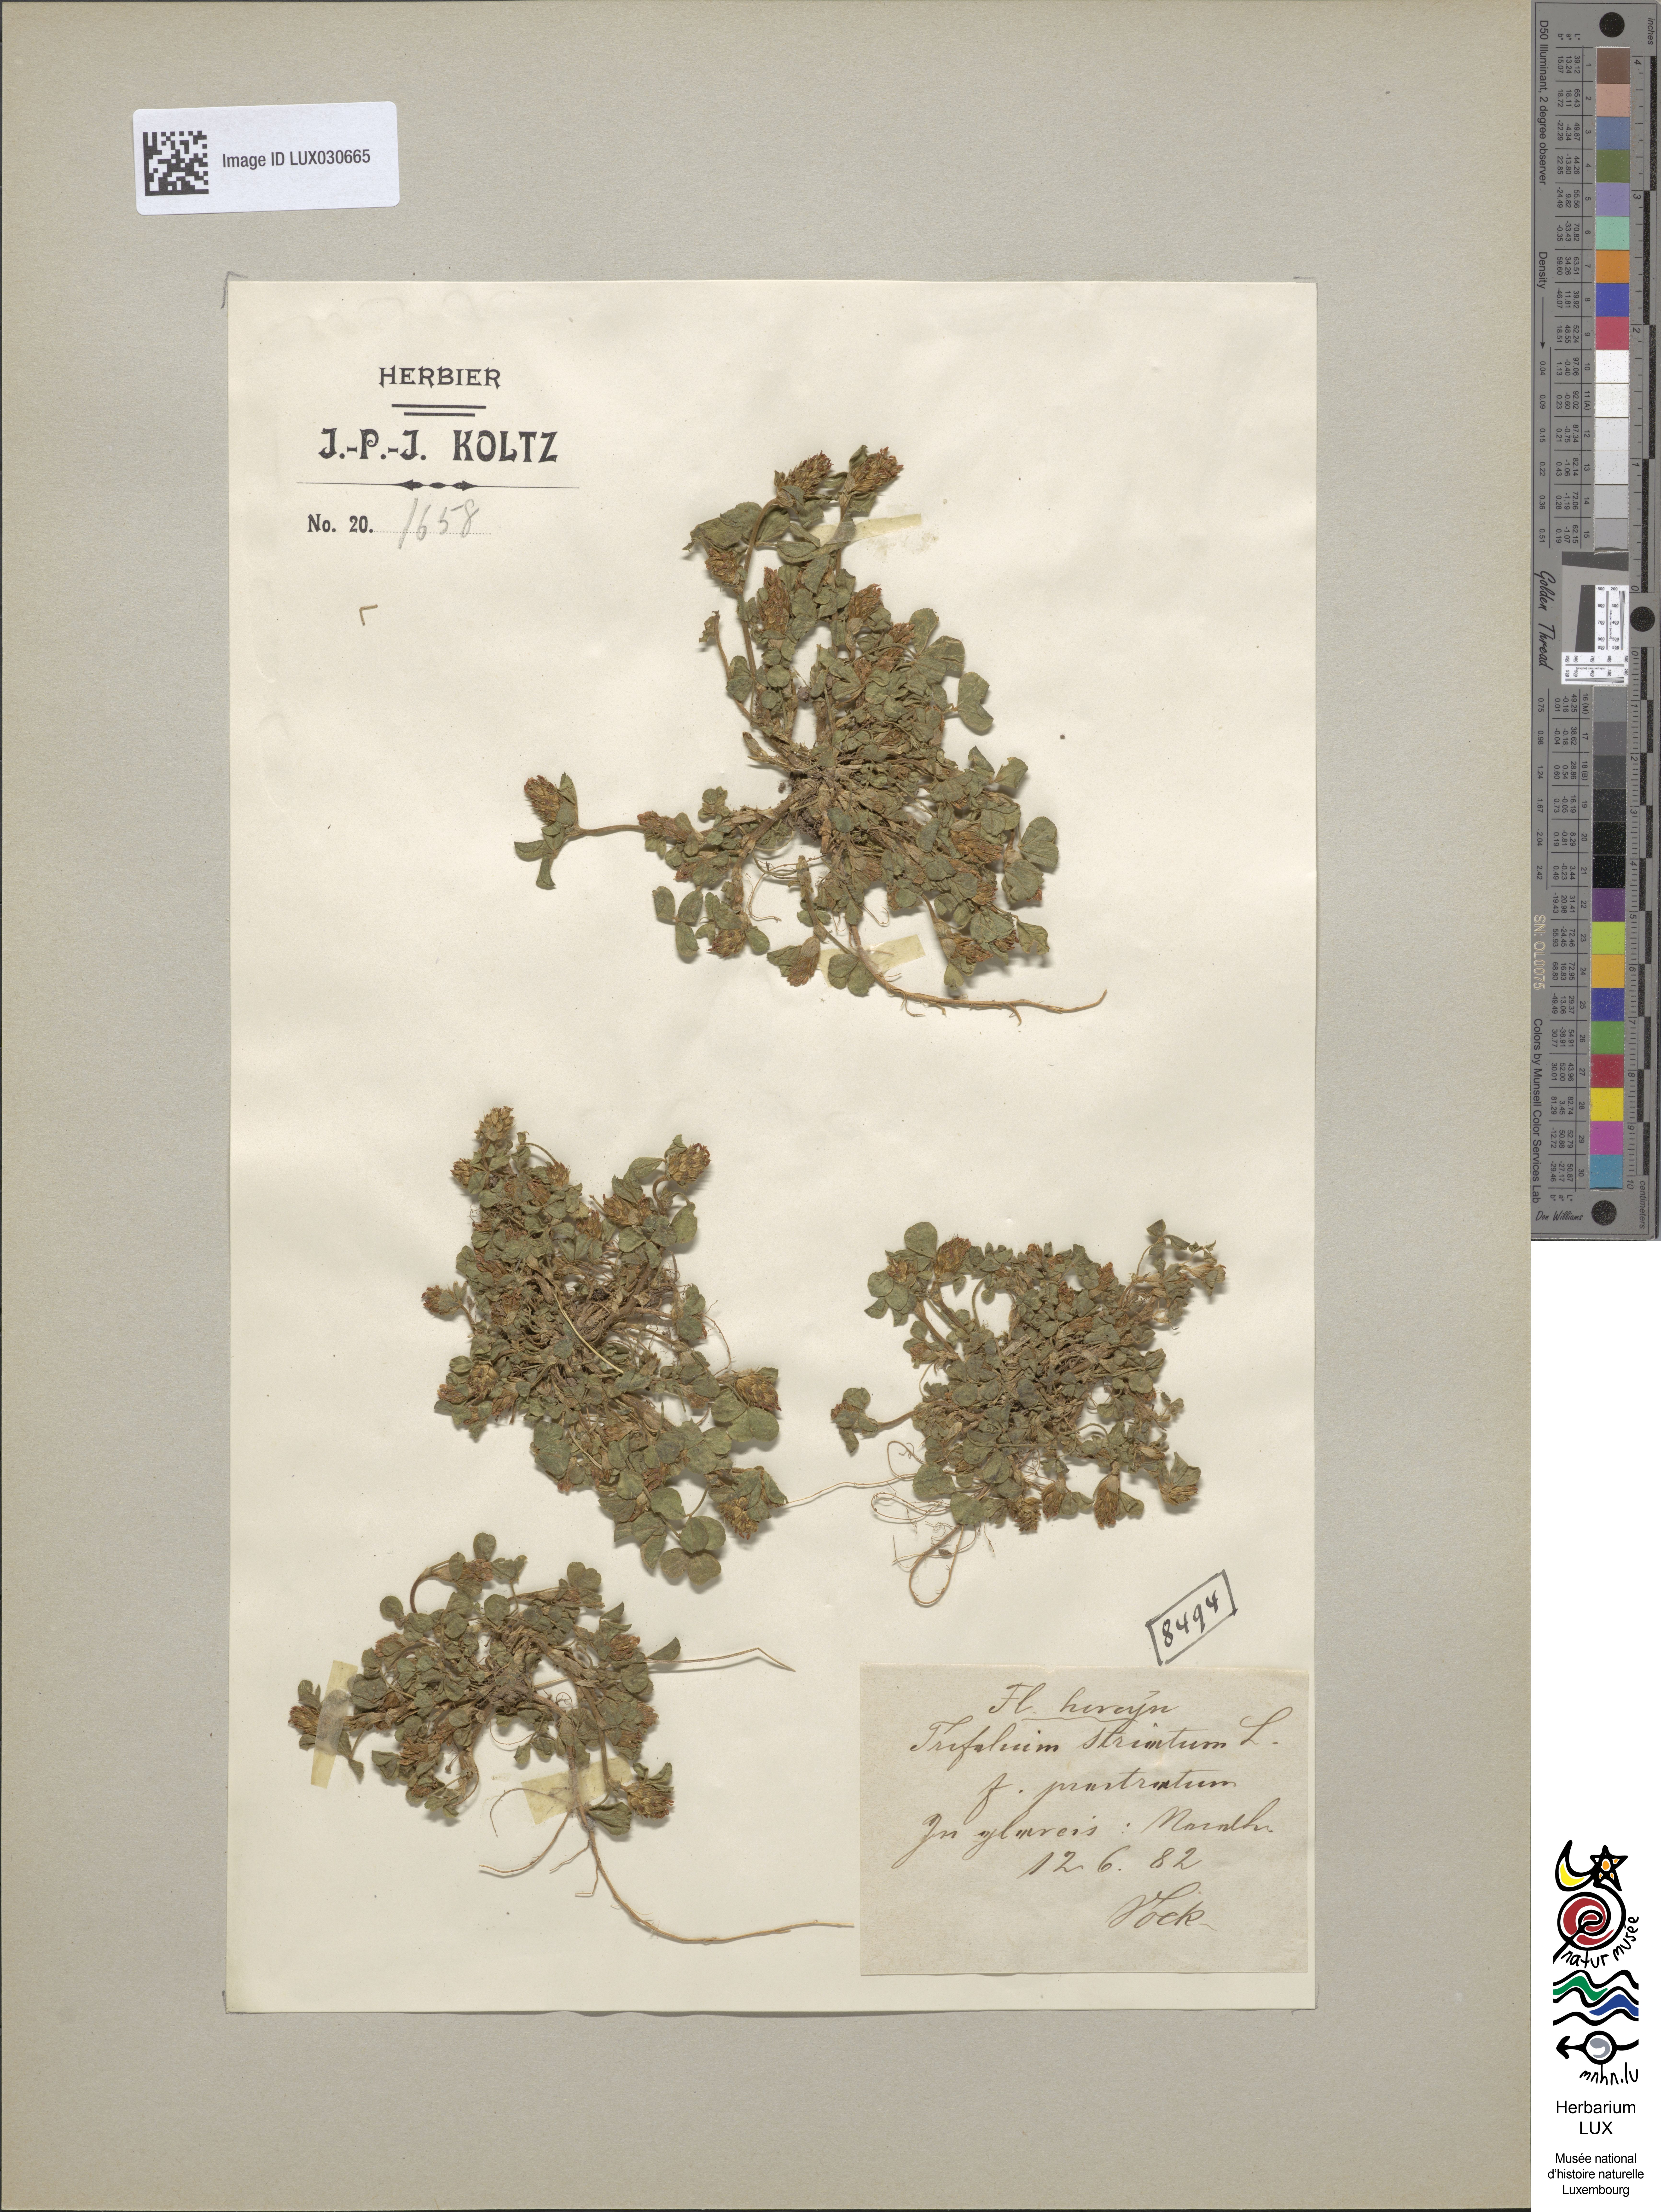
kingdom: Plantae
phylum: Tracheophyta
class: Magnoliopsida
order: Fabales
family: Fabaceae
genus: Trifolium
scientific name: Trifolium striatum
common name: Knotted clover
